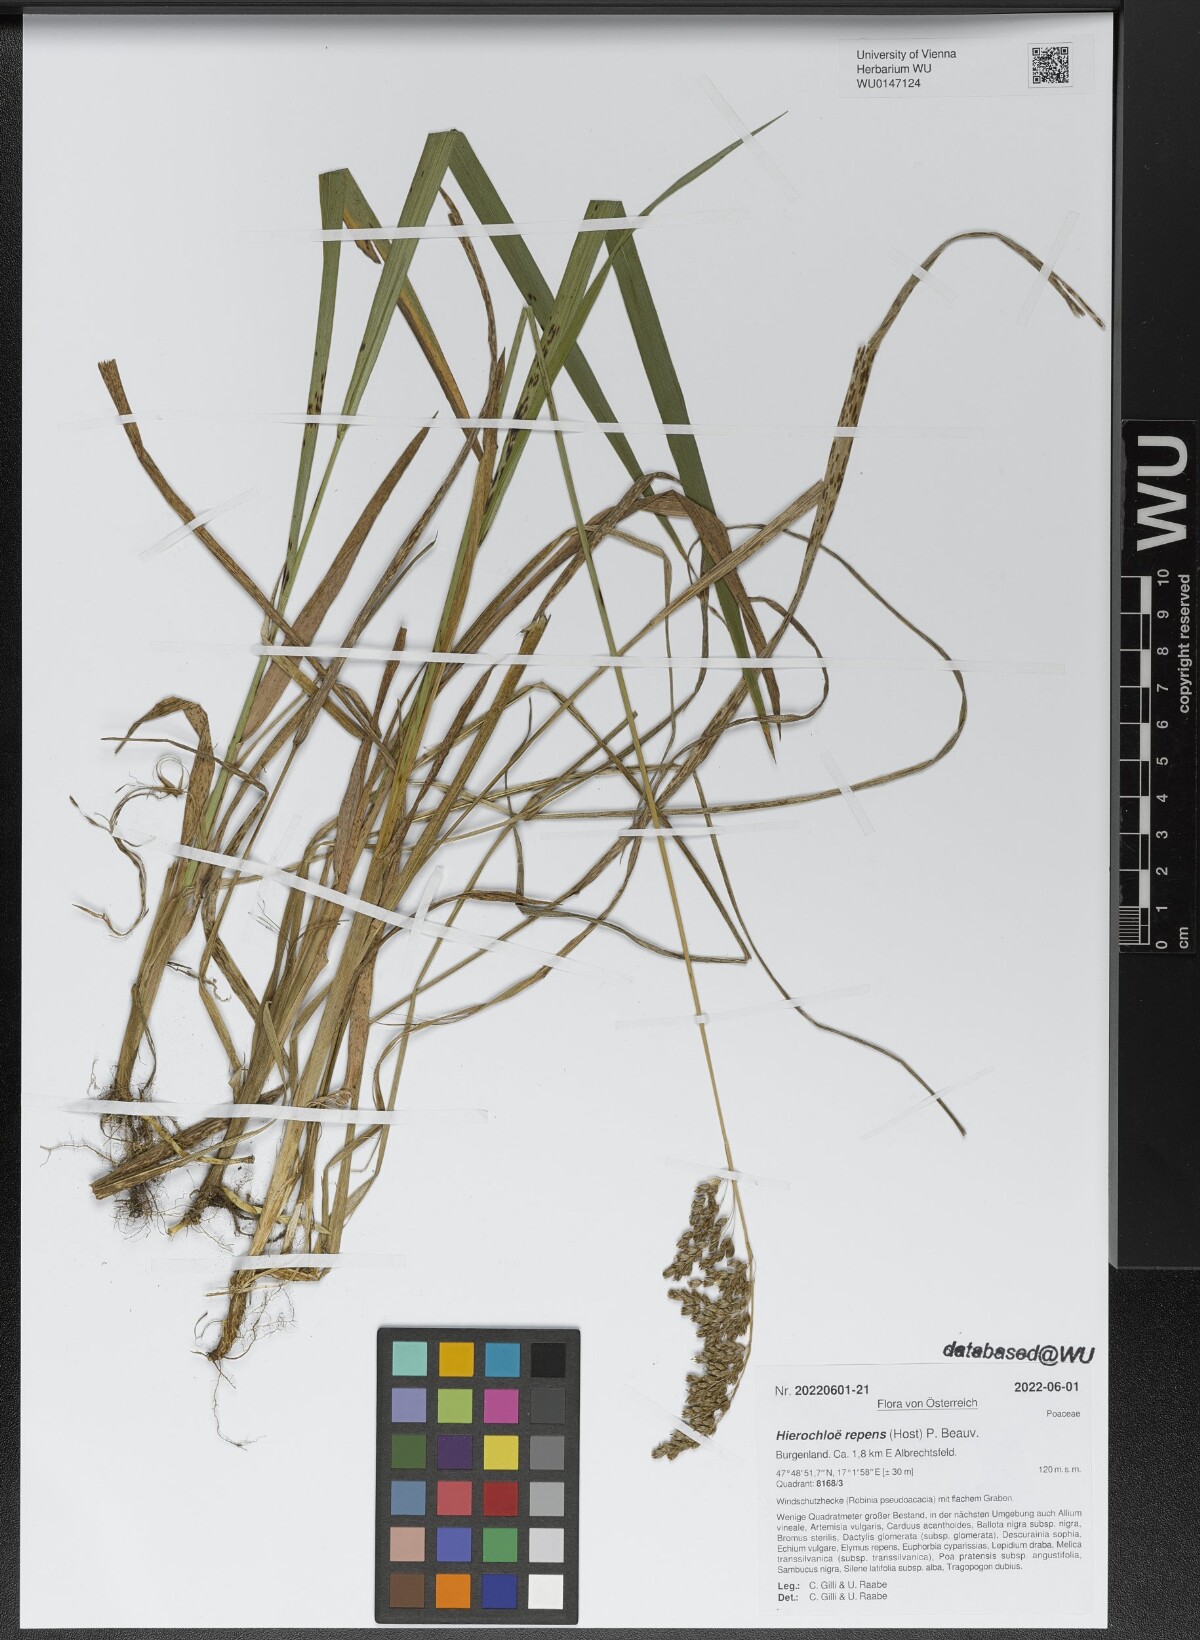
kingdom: Plantae
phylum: Tracheophyta
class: Liliopsida
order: Poales
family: Poaceae
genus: Anthoxanthum
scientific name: Anthoxanthum repens
